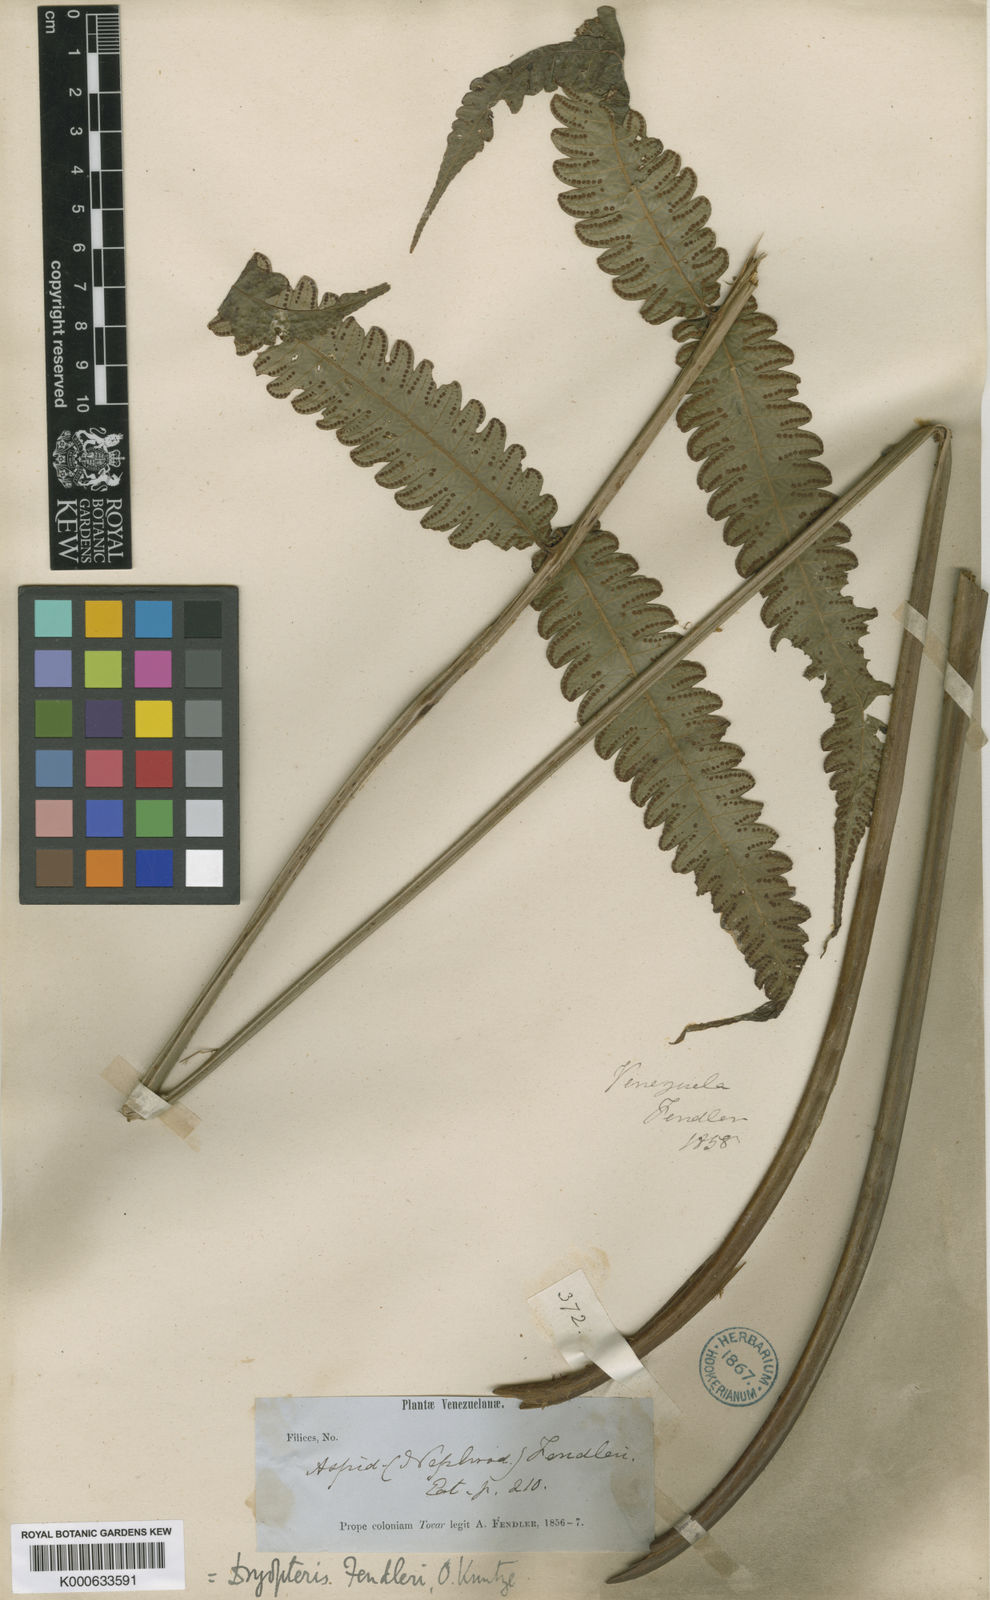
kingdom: Plantae
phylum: Tracheophyta
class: Polypodiopsida
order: Polypodiales
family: Thelypteridaceae
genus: Steiropteris
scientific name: Steiropteris fendleri
